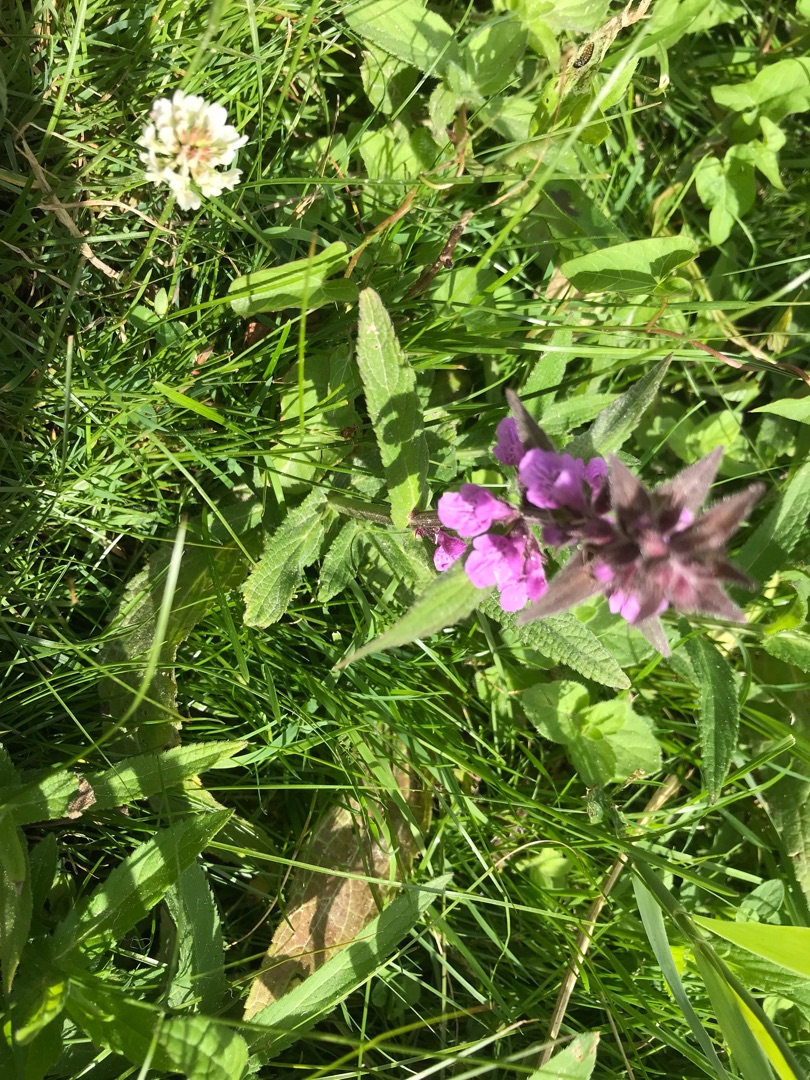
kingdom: Plantae
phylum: Tracheophyta
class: Magnoliopsida
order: Lamiales
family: Lamiaceae
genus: Stachys
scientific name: Stachys palustris
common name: Kær-galtetand
